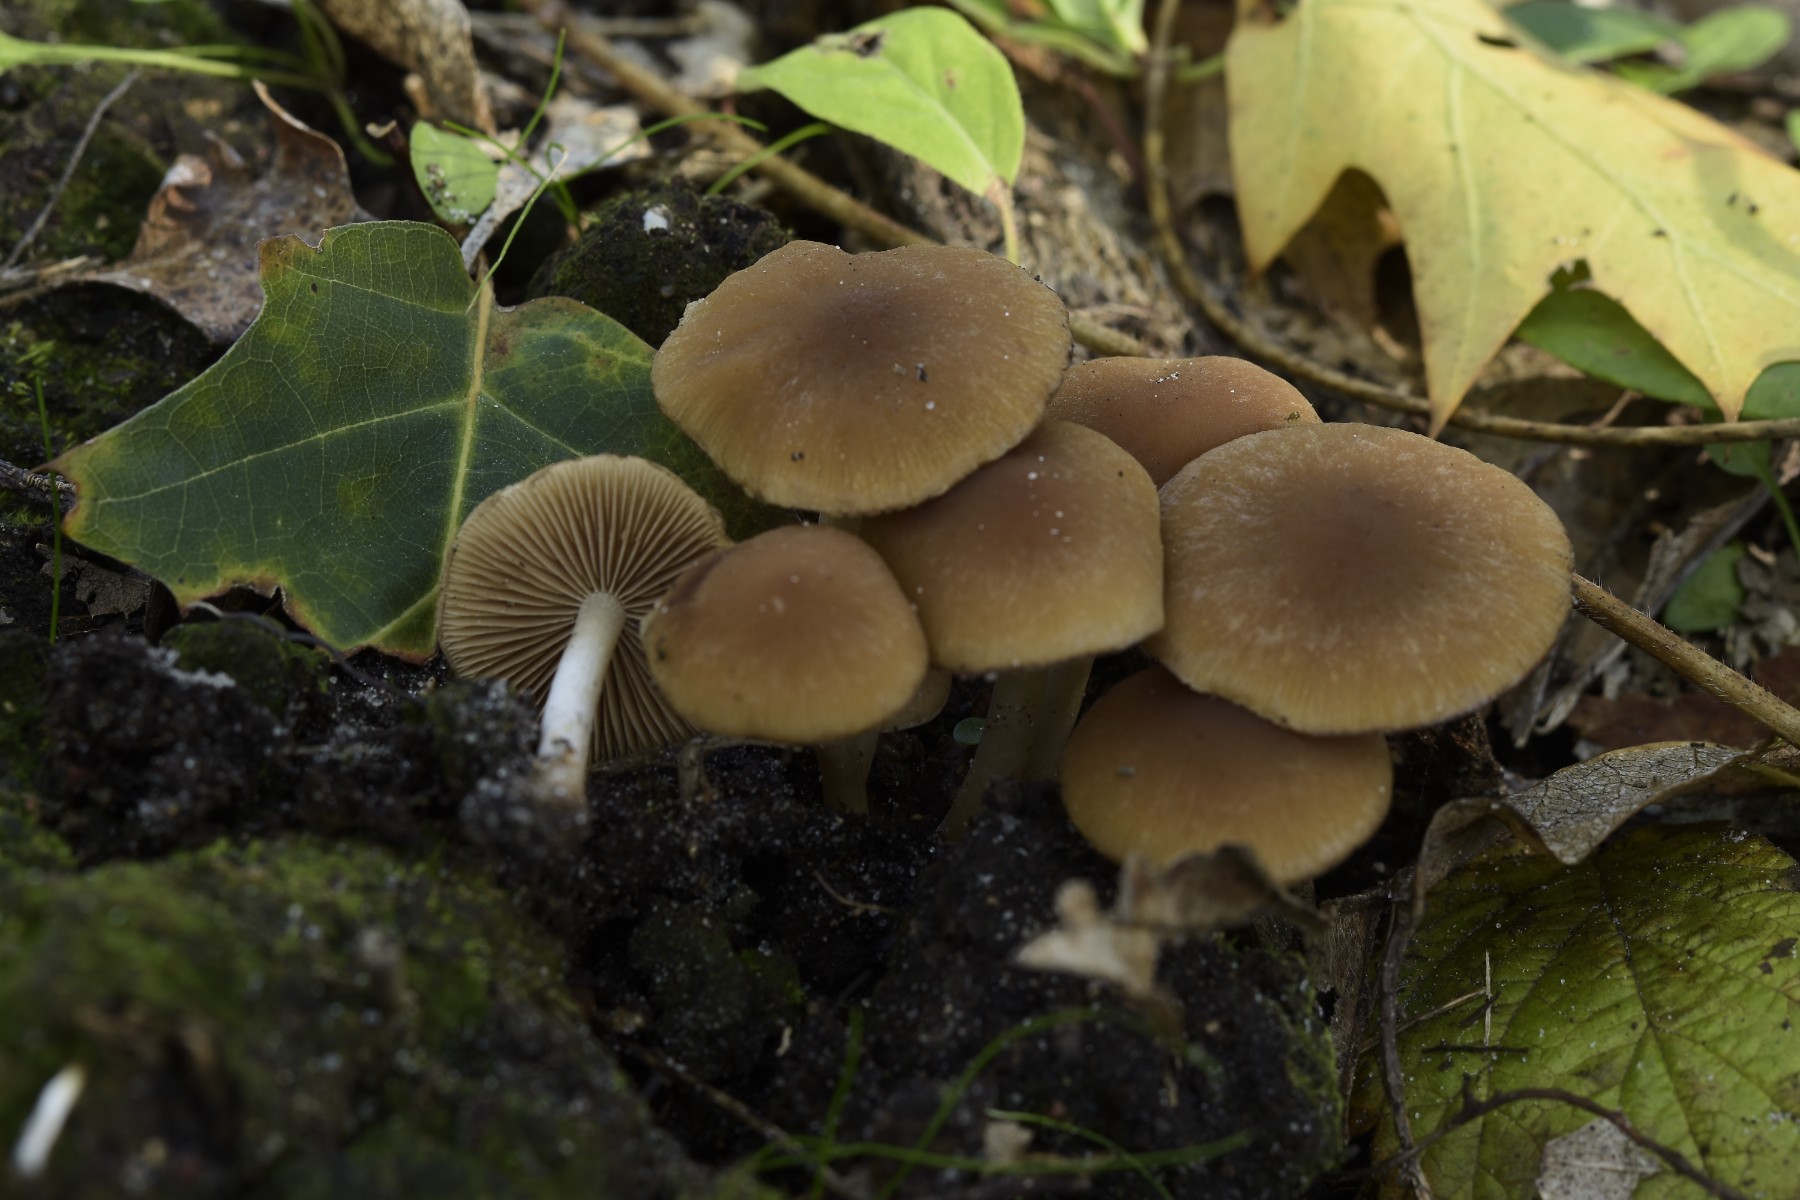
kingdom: Fungi
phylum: Basidiomycota
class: Agaricomycetes
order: Agaricales
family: Psathyrellaceae
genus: Psathyrella
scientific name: Psathyrella piluliformis
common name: lysstokket mørkhat
